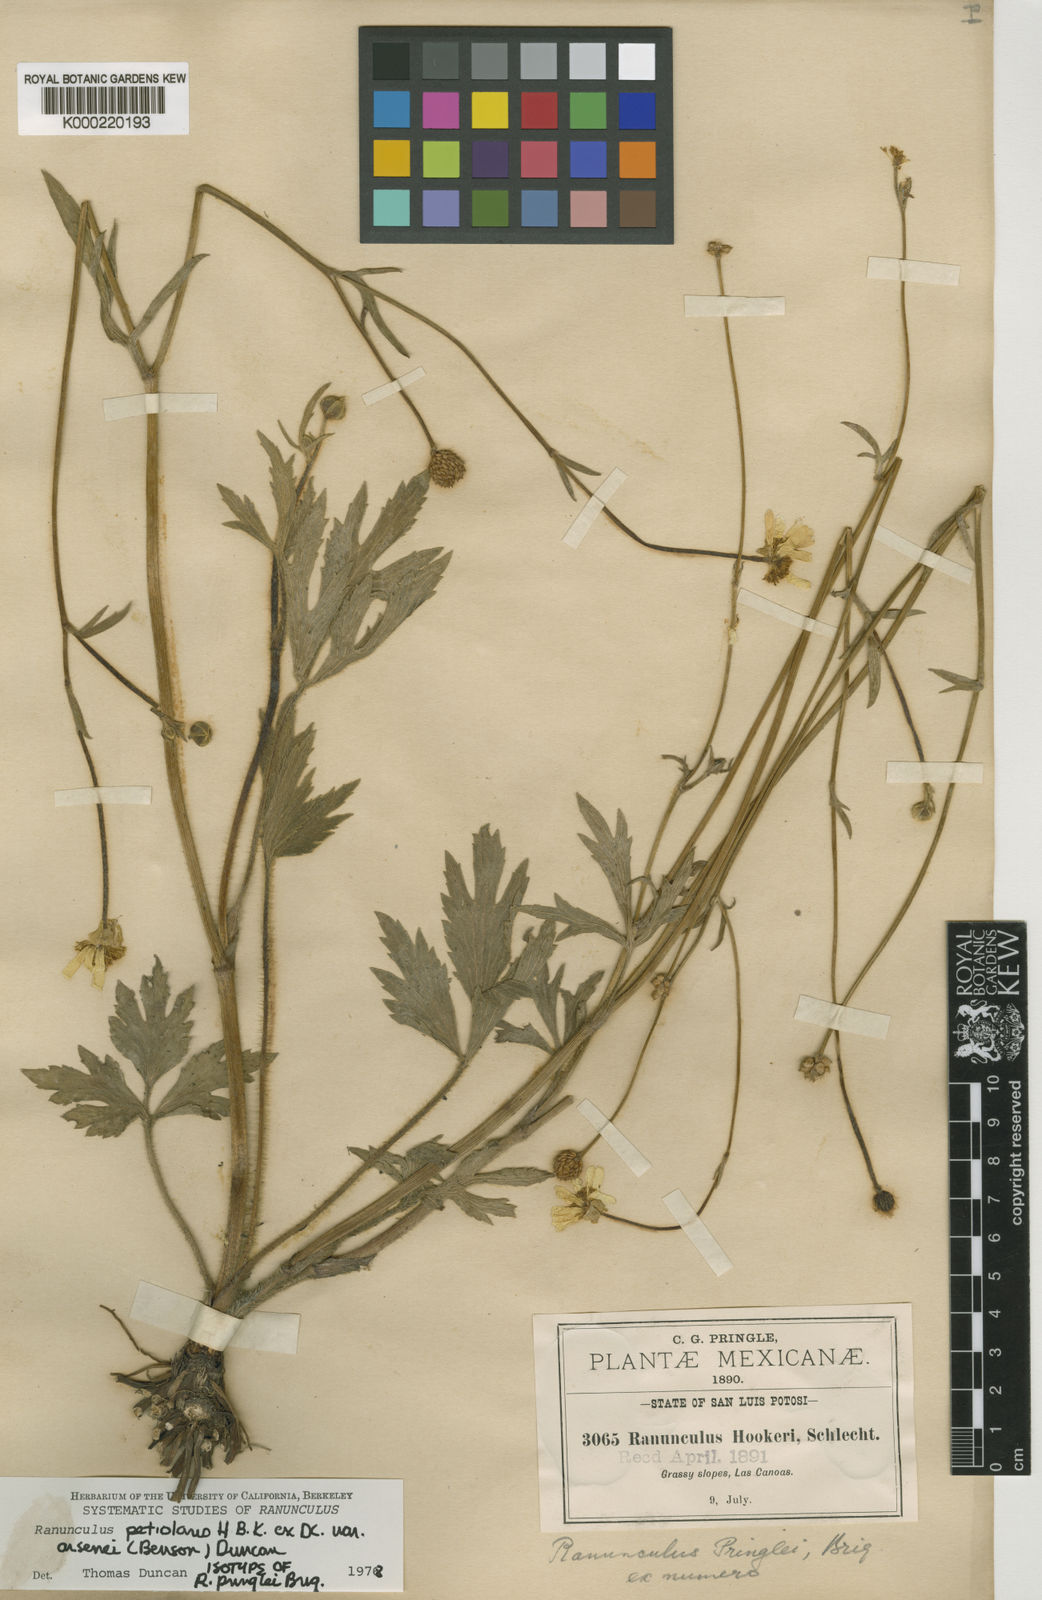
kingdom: Plantae
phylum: Tracheophyta
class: Magnoliopsida
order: Ranunculales
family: Ranunculaceae
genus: Ranunculus
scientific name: Ranunculus petiolaris
